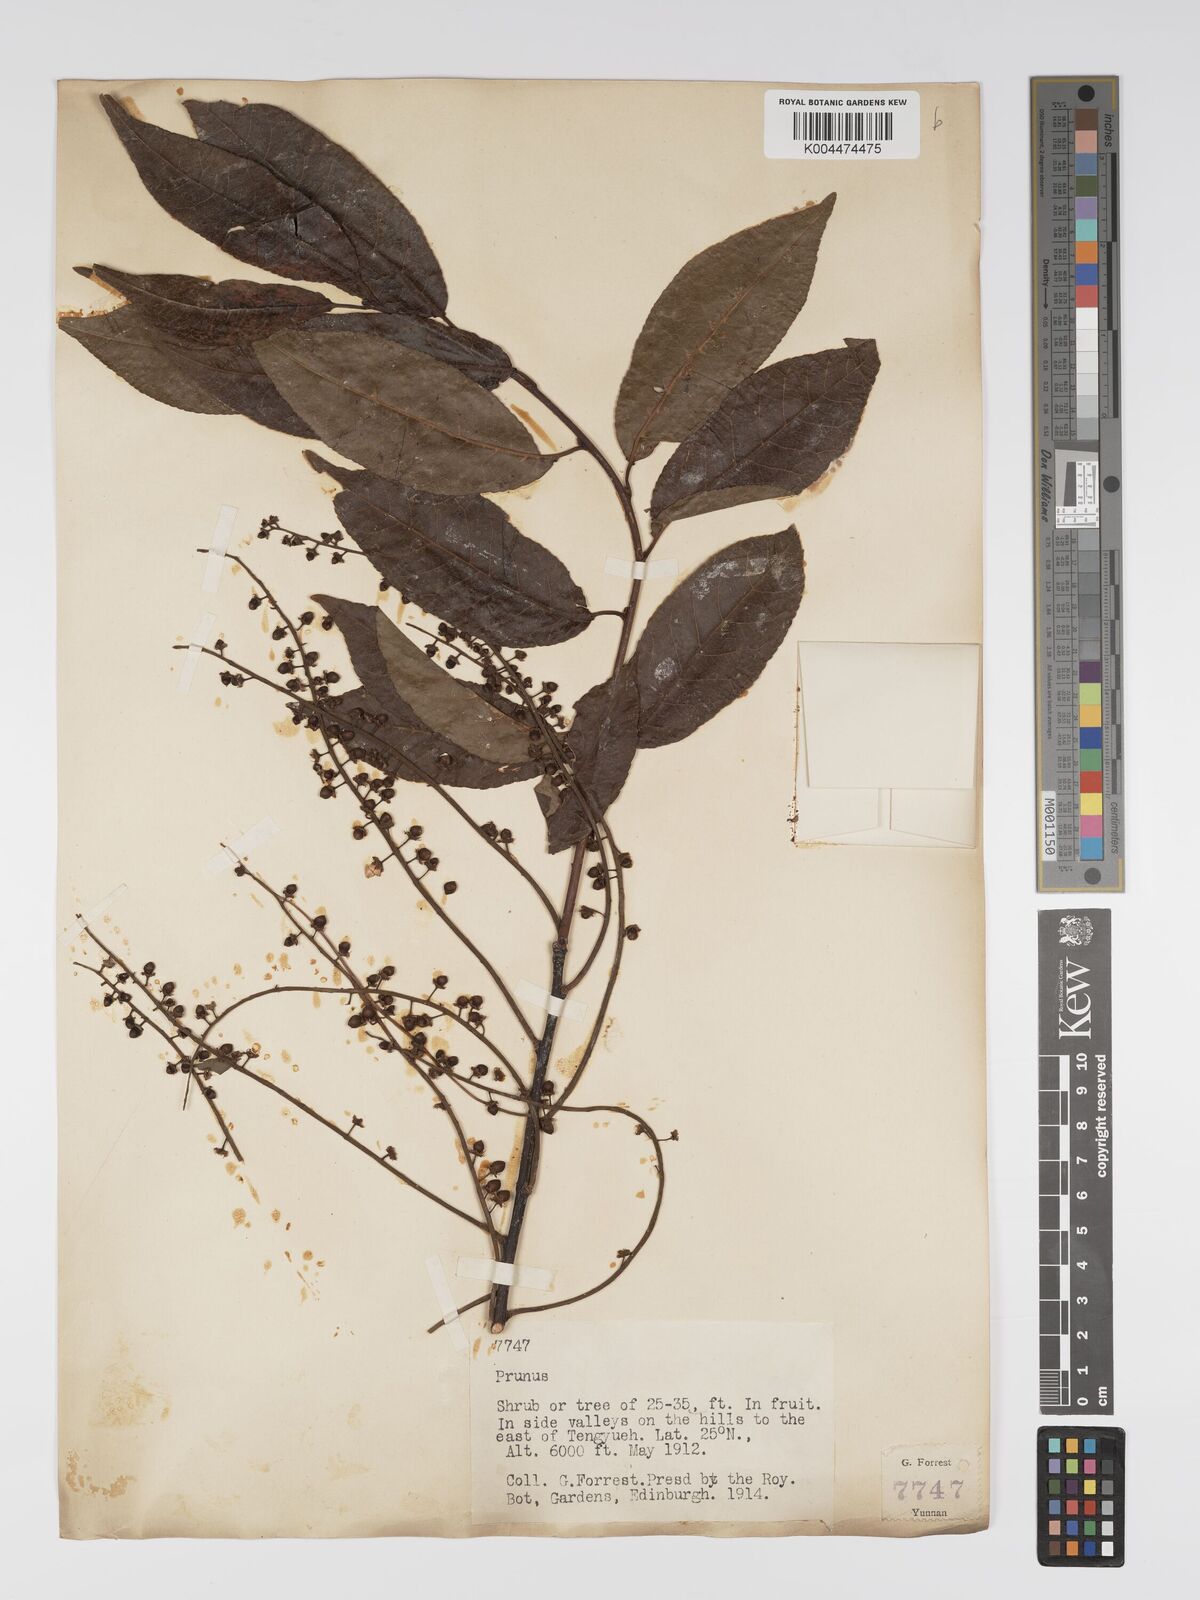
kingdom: Plantae
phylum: Tracheophyta
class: Magnoliopsida
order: Rosales
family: Rosaceae
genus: Prunus
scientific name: Prunus
